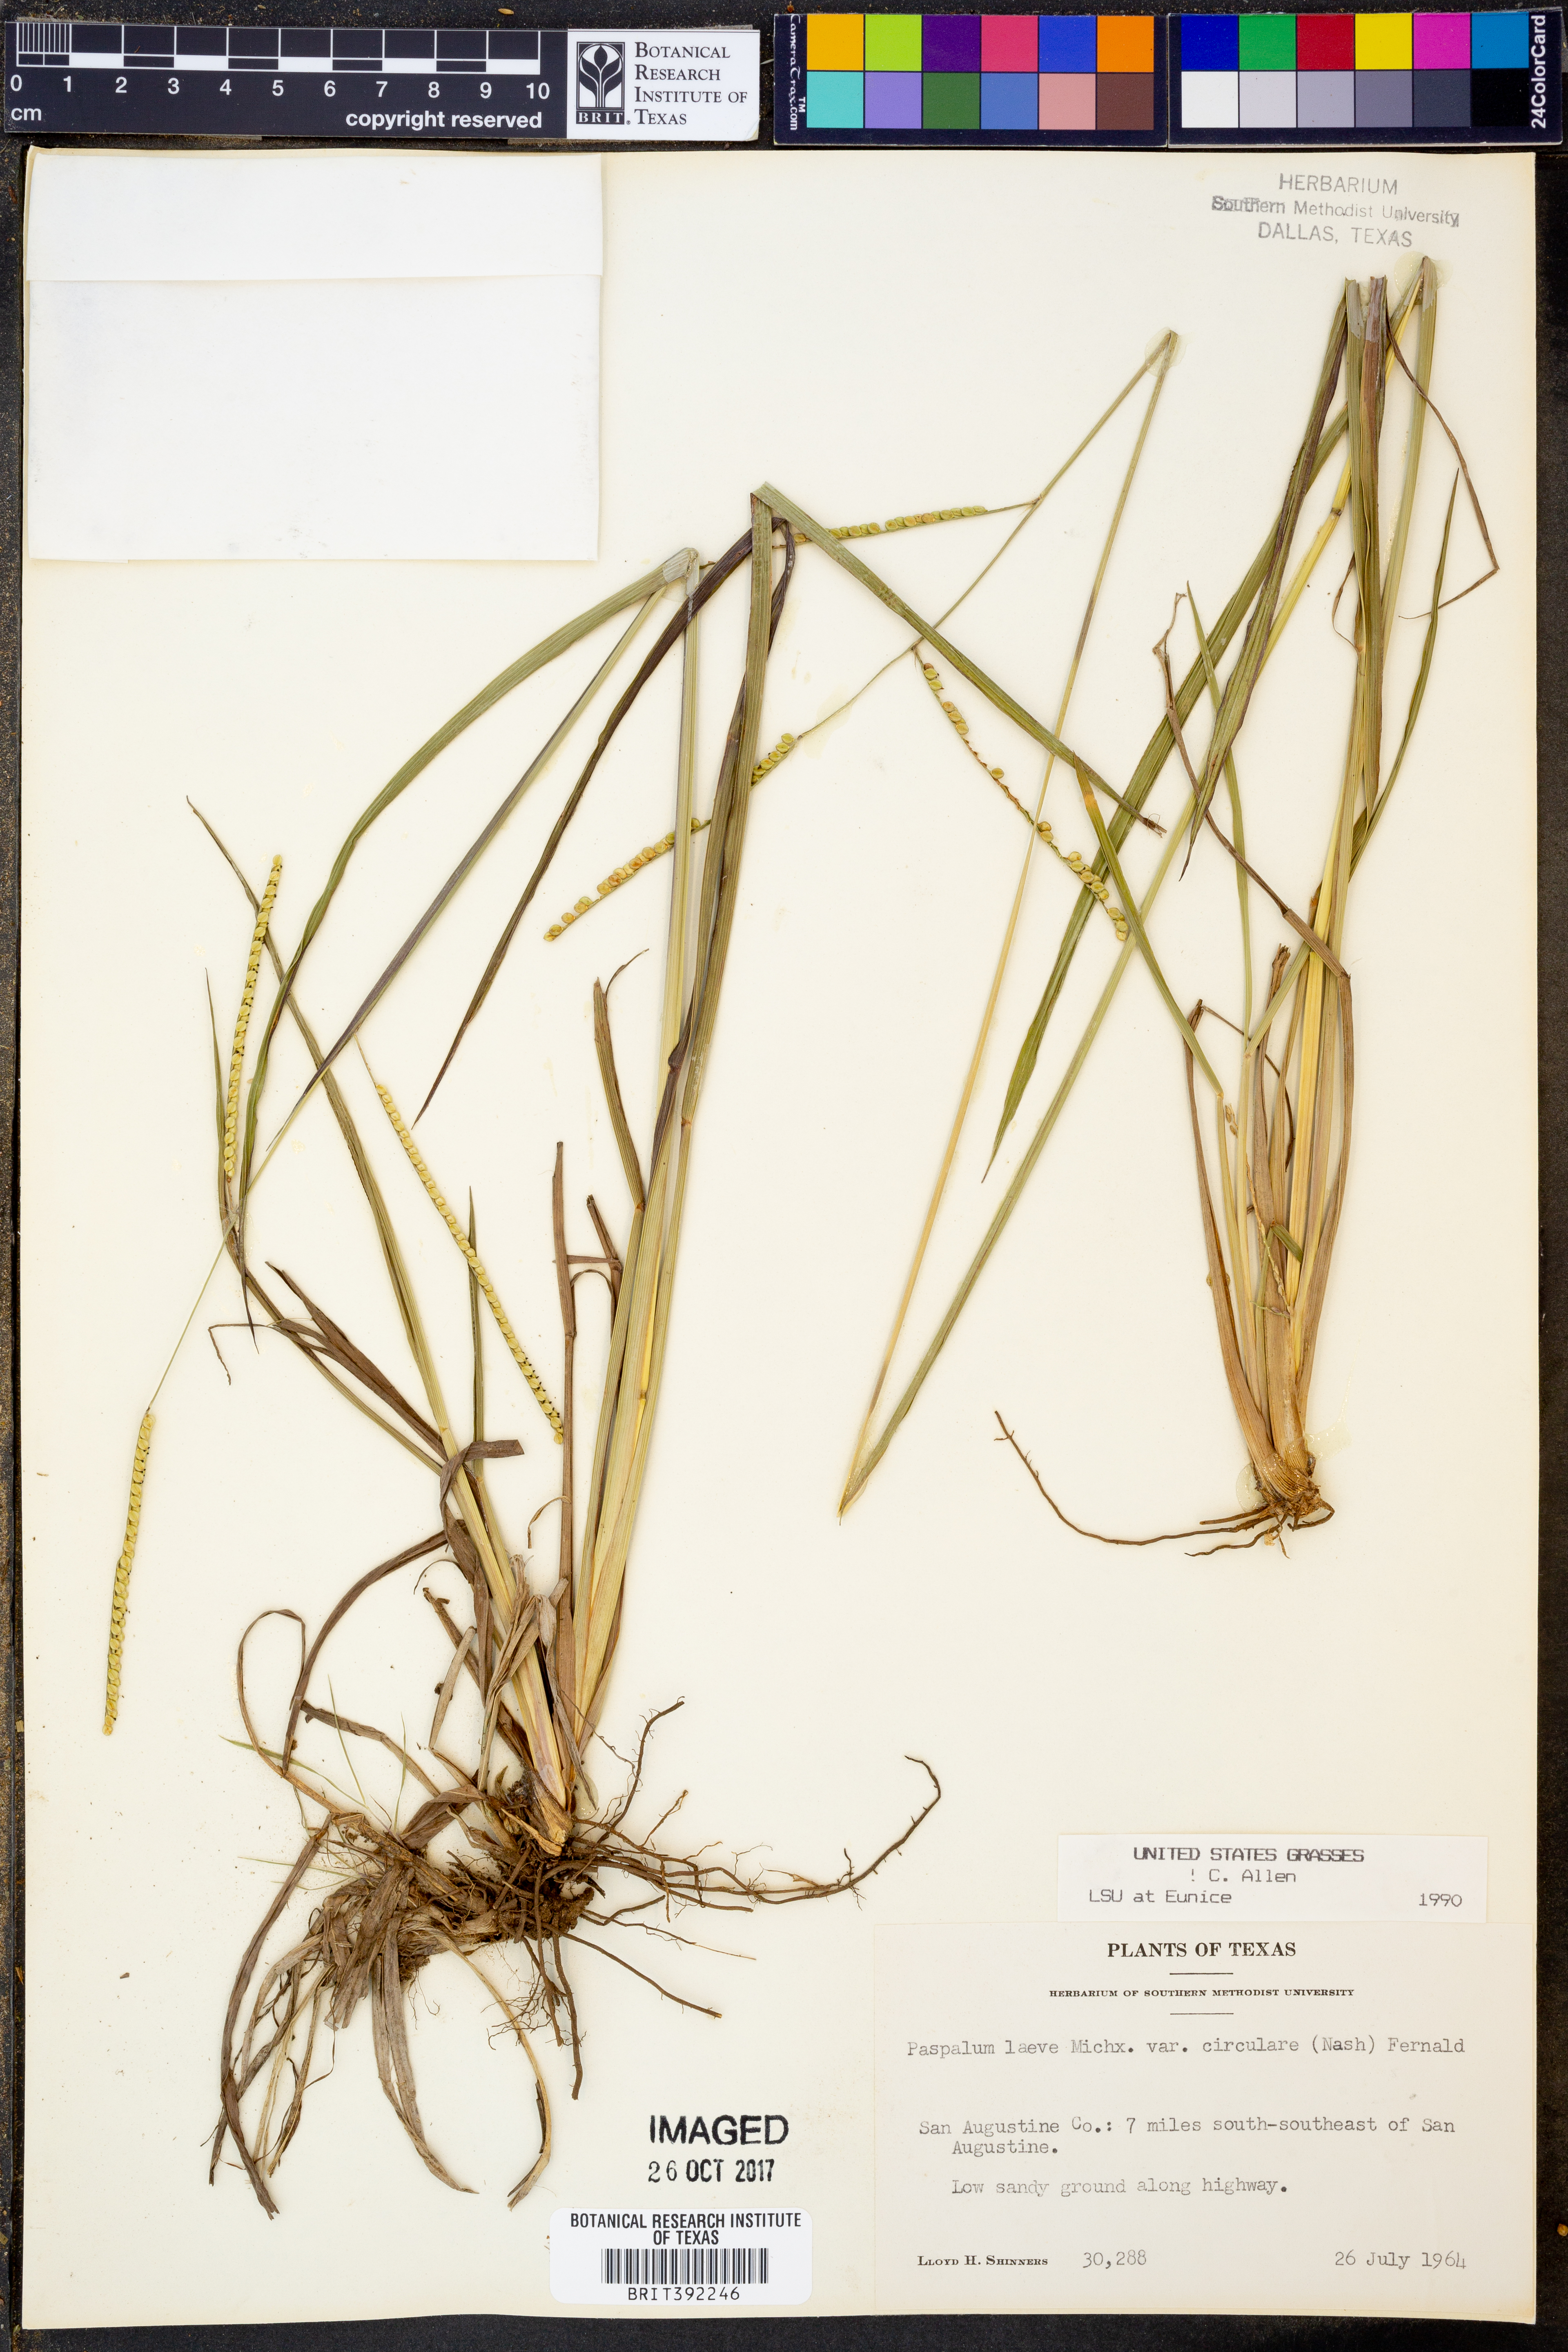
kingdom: Plantae
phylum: Tracheophyta
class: Liliopsida
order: Poales
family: Poaceae
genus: Paspalum
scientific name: Paspalum laeve
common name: Field paspalum
